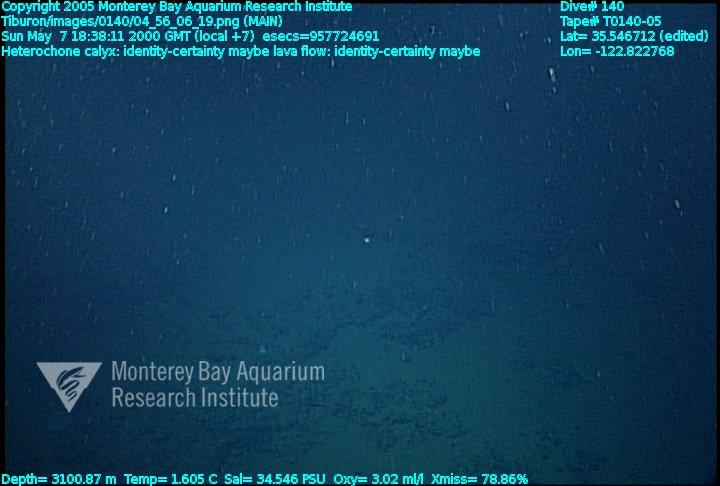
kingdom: Animalia
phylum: Porifera
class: Hexactinellida
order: Sceptrulophora
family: Aphrocallistidae
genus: Heterochone
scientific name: Heterochone calyx
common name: Fingered goblet glass sponge
